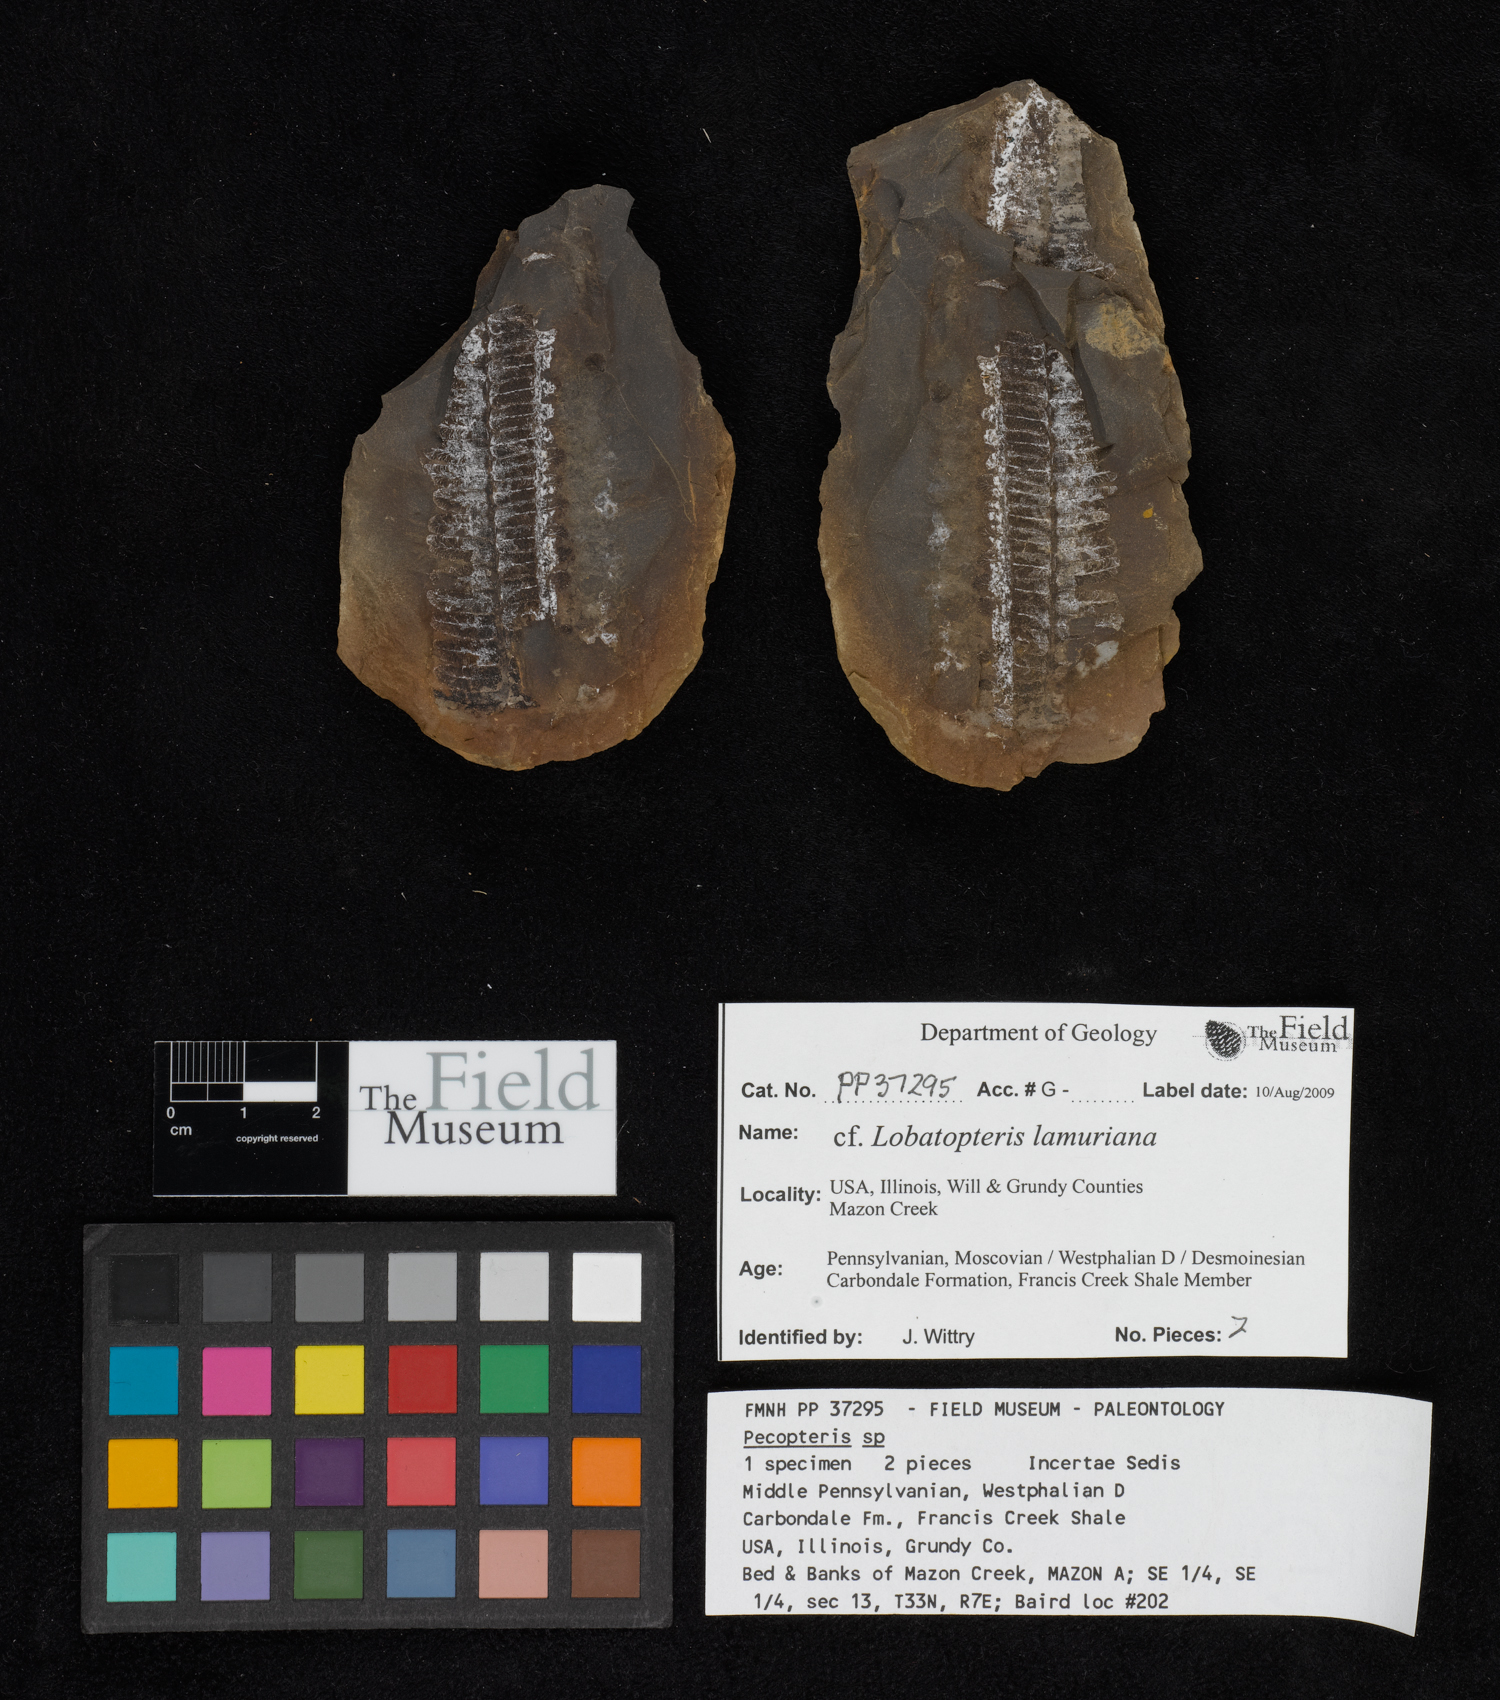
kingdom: Plantae
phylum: Tracheophyta
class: Polypodiopsida
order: Marattiales
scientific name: Marattiales
